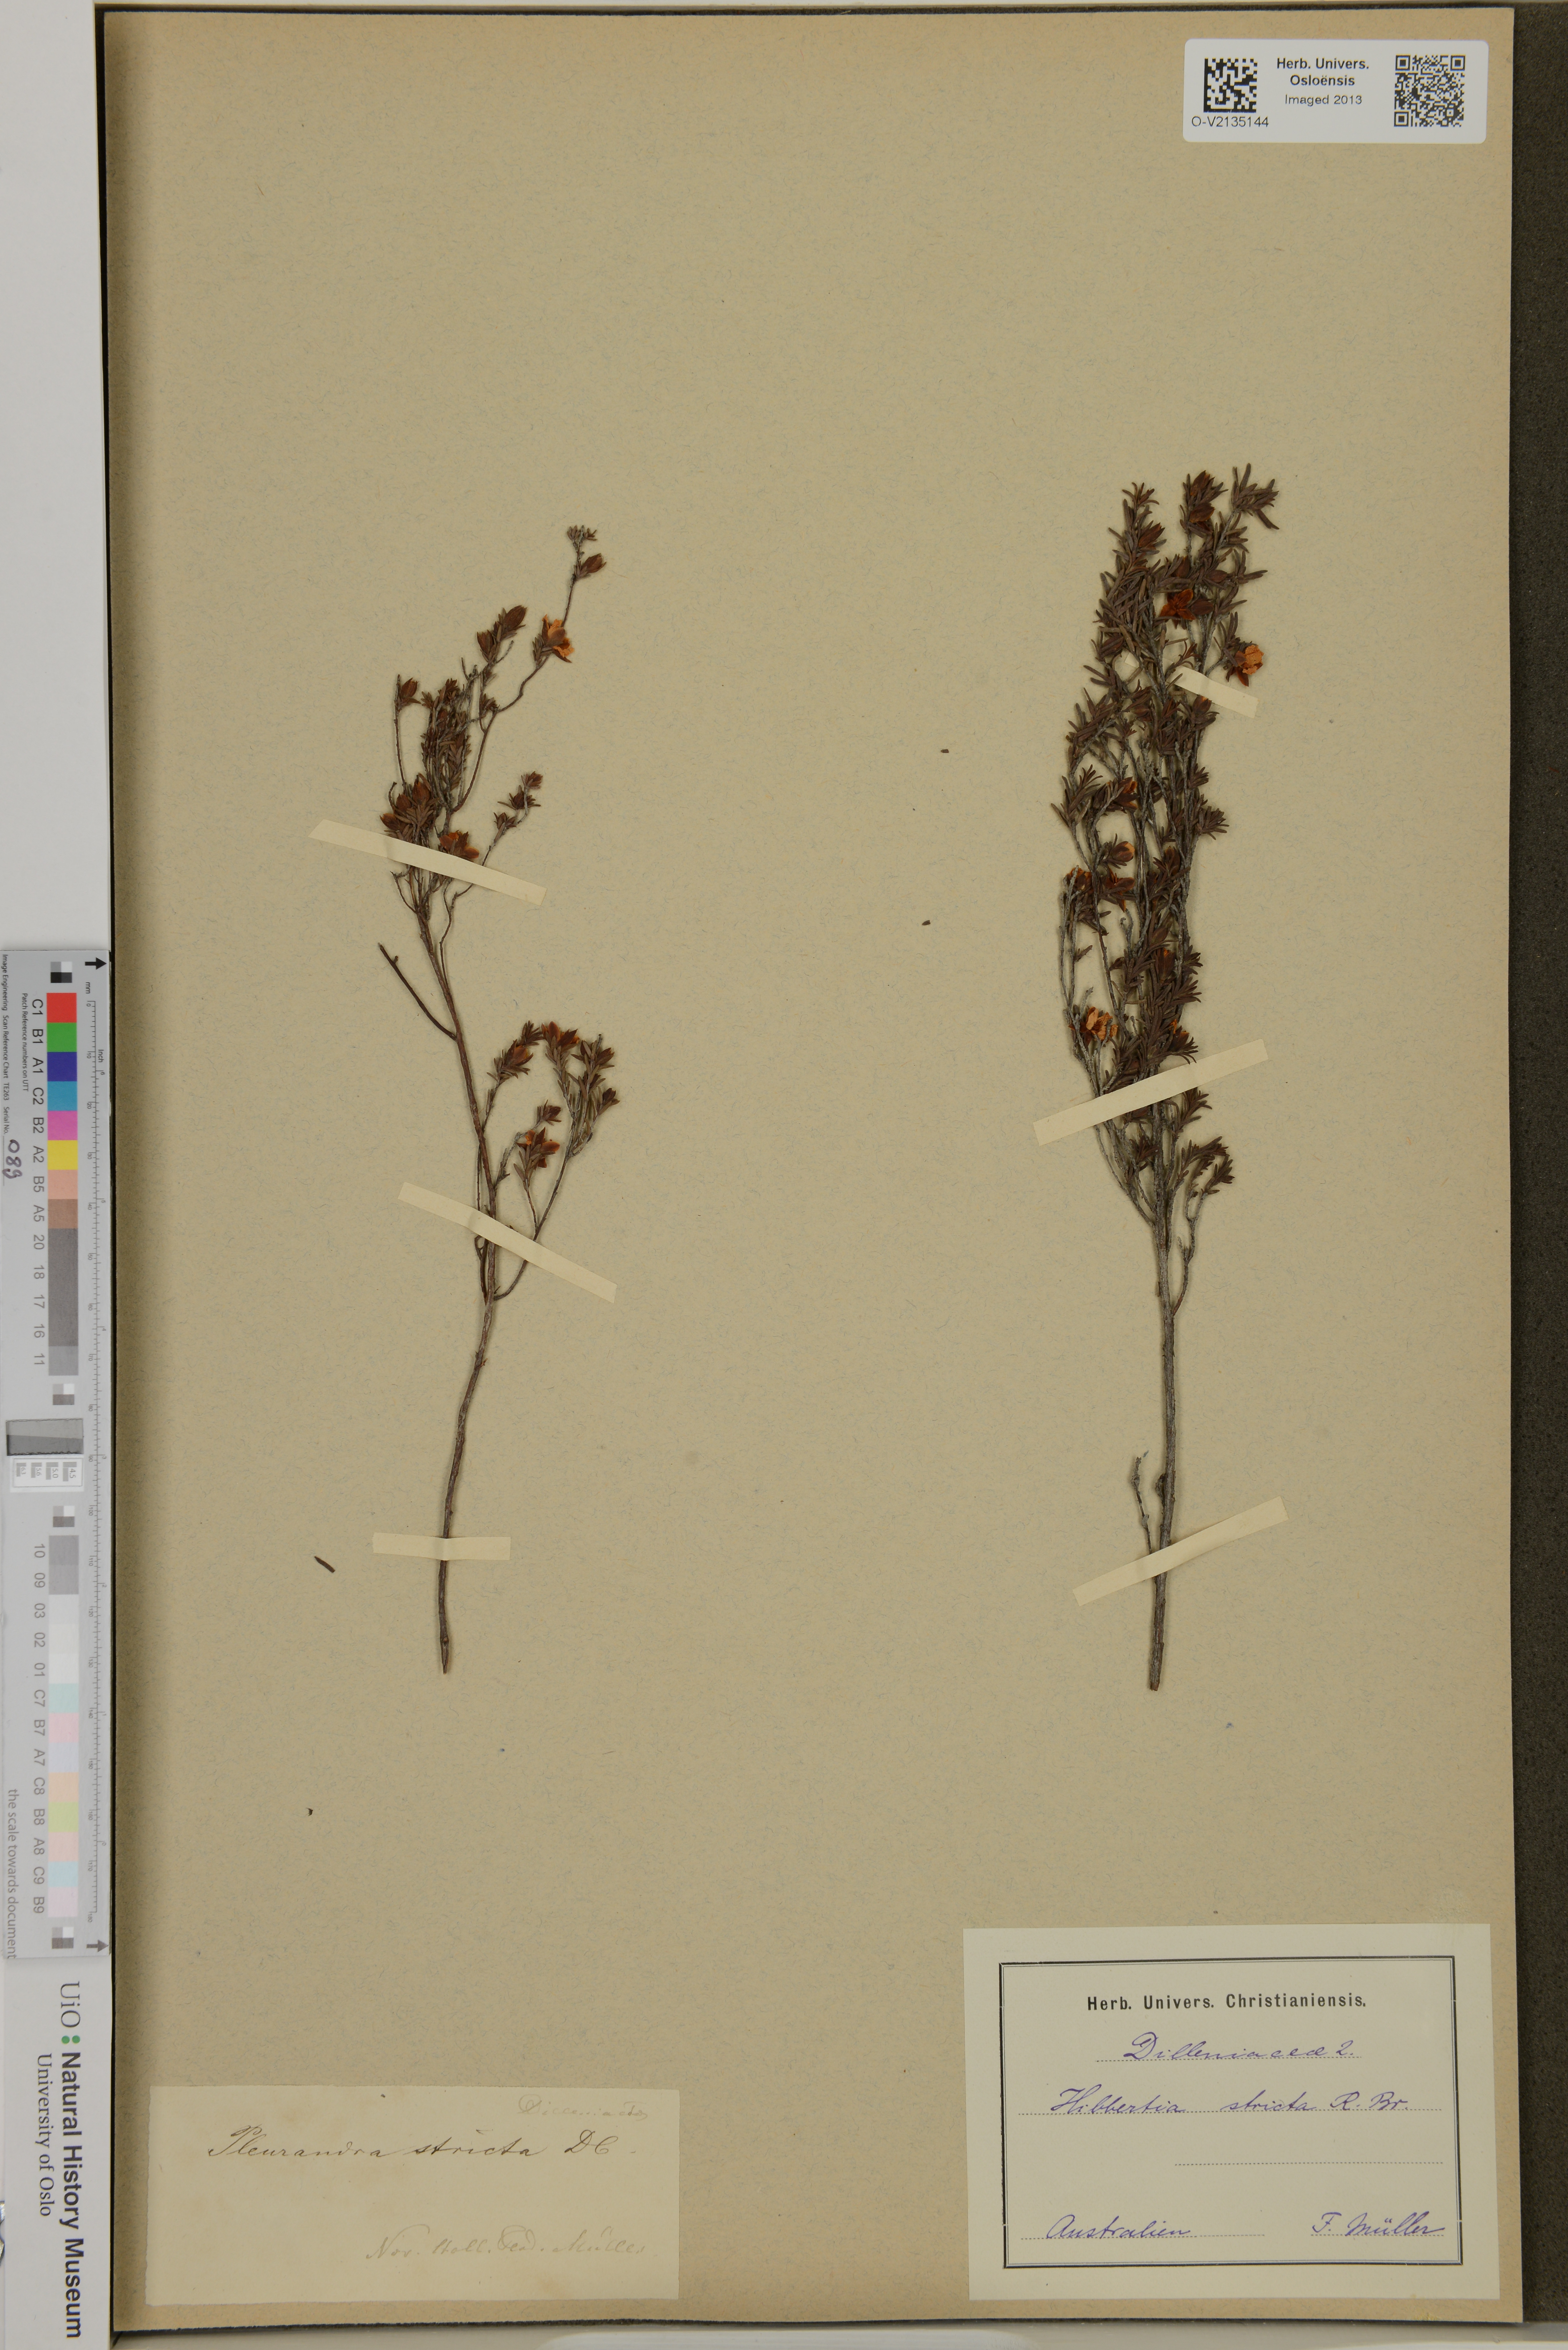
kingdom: Plantae
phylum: Tracheophyta
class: Magnoliopsida
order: Dilleniales
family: Dilleniaceae
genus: Hibbertia
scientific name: Hibbertia stricta
